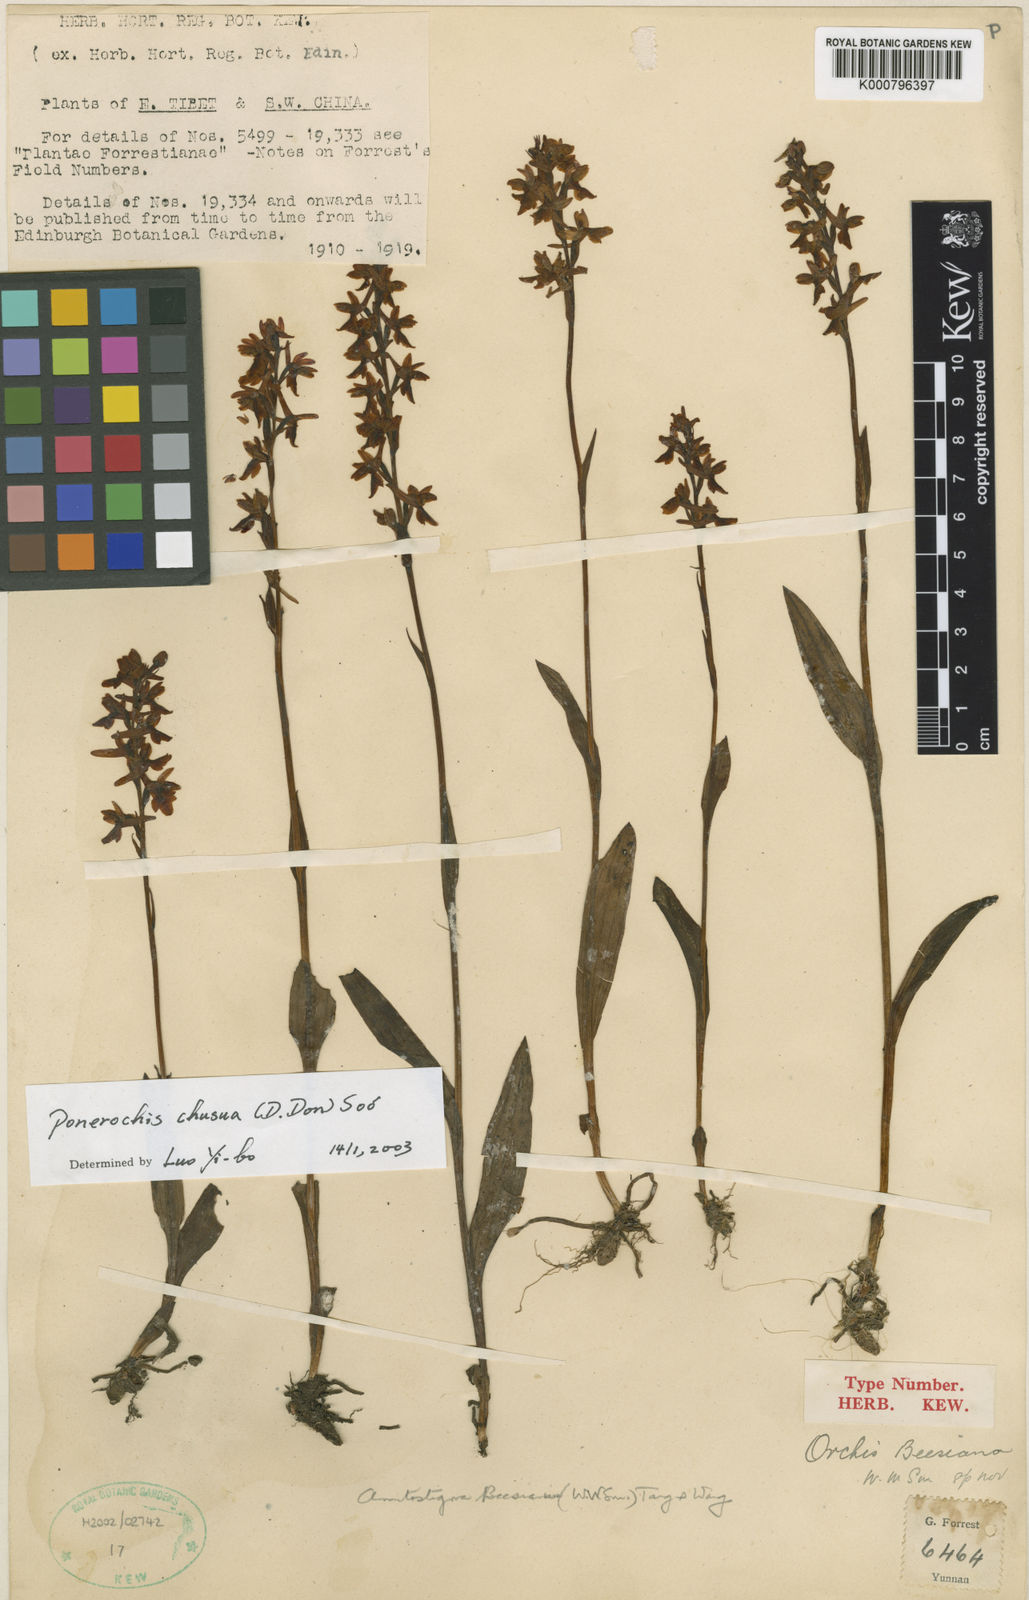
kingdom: Plantae
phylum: Tracheophyta
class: Liliopsida
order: Asparagales
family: Orchidaceae
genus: Hemipilia
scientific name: Hemipilia
